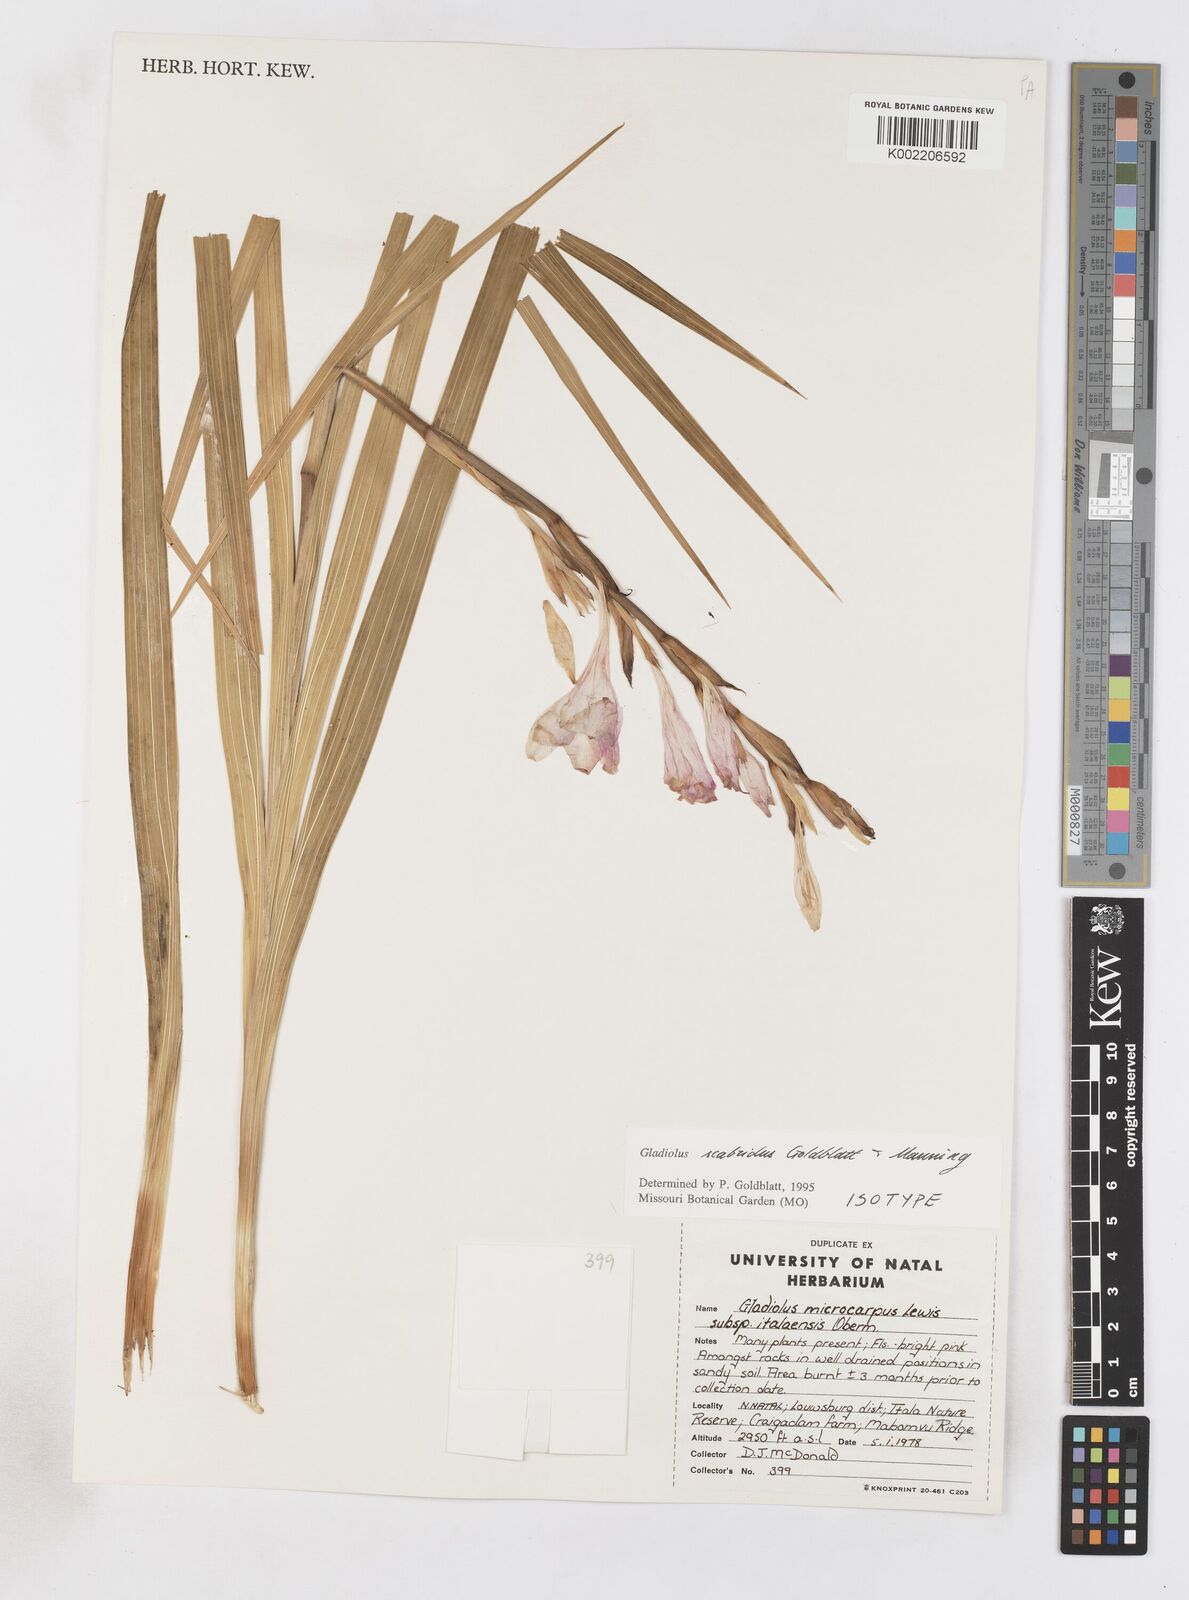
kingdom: Plantae
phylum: Tracheophyta
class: Liliopsida
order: Asparagales
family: Iridaceae
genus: Gladiolus
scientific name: Gladiolus scabridus
